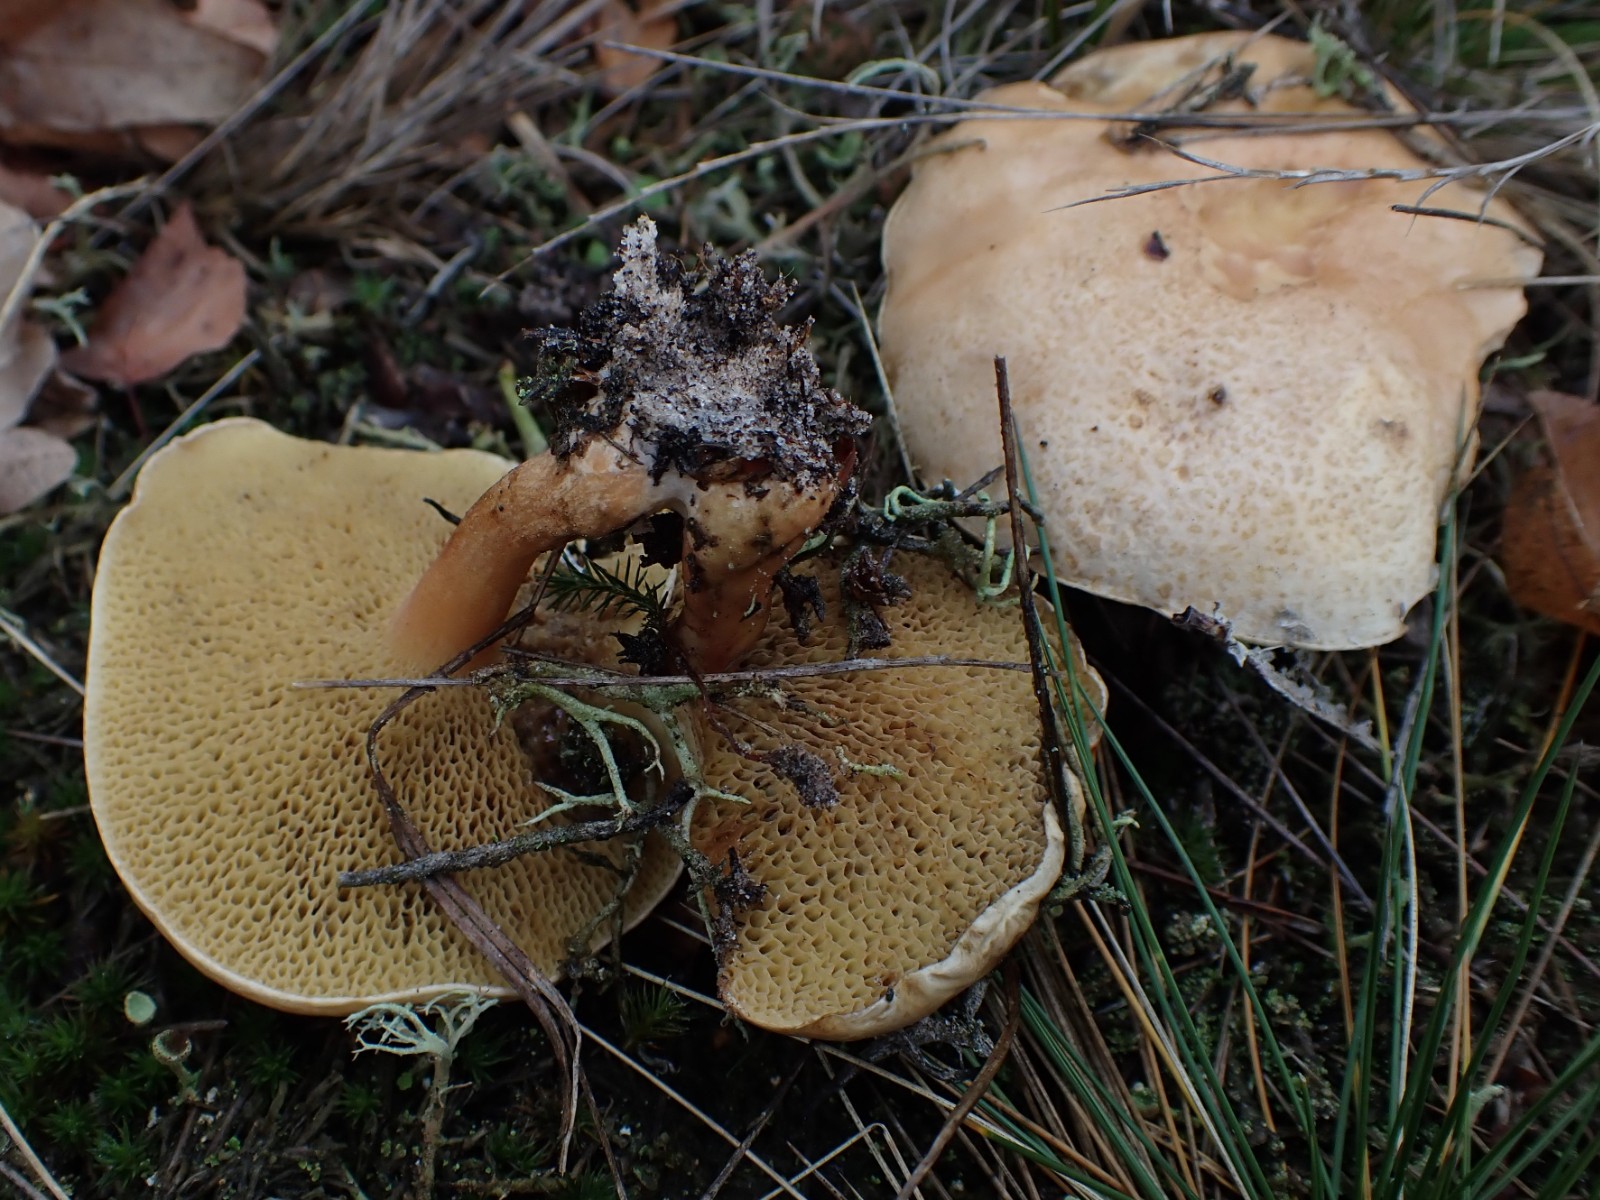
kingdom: Fungi
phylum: Basidiomycota
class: Agaricomycetes
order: Boletales
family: Suillaceae
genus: Suillus
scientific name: Suillus bovinus
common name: grovporet slimrørhat
